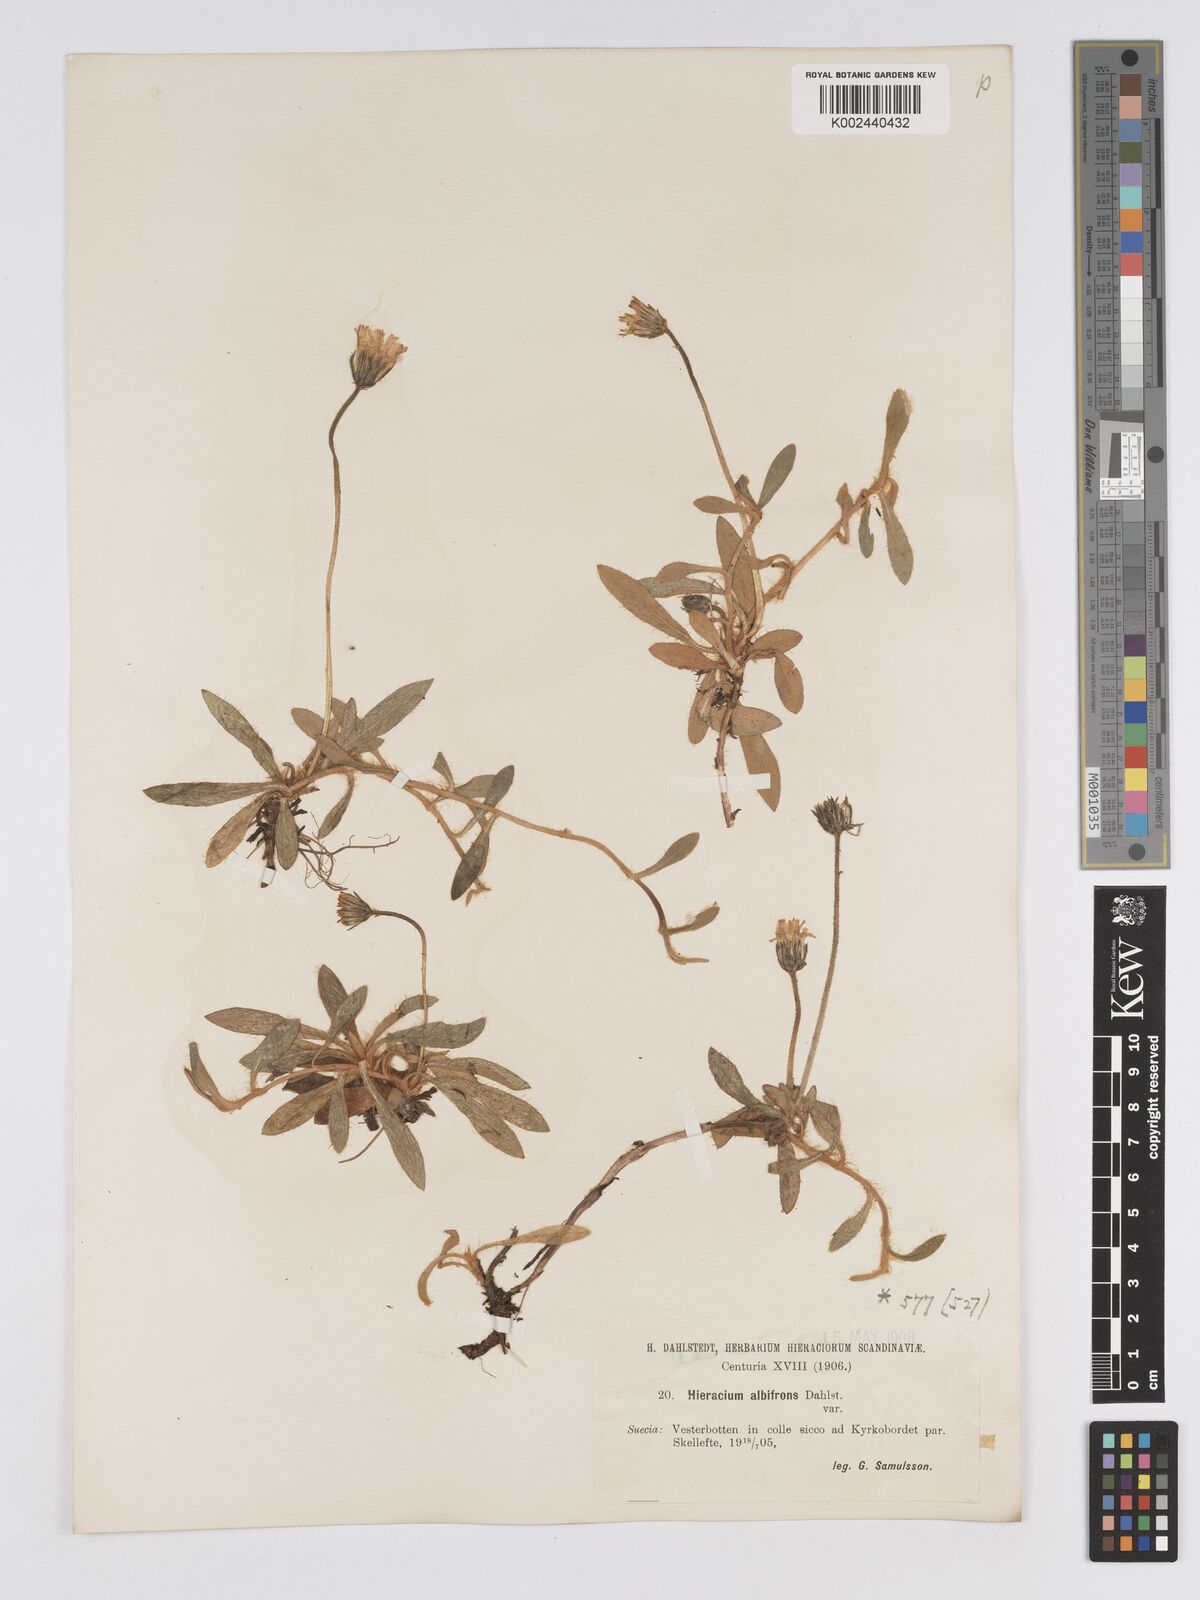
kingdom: Plantae
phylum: Tracheophyta
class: Magnoliopsida
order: Asterales
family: Asteraceae
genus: Pilosella
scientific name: Pilosella officinarum
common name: Mouse-ear hawkweed
